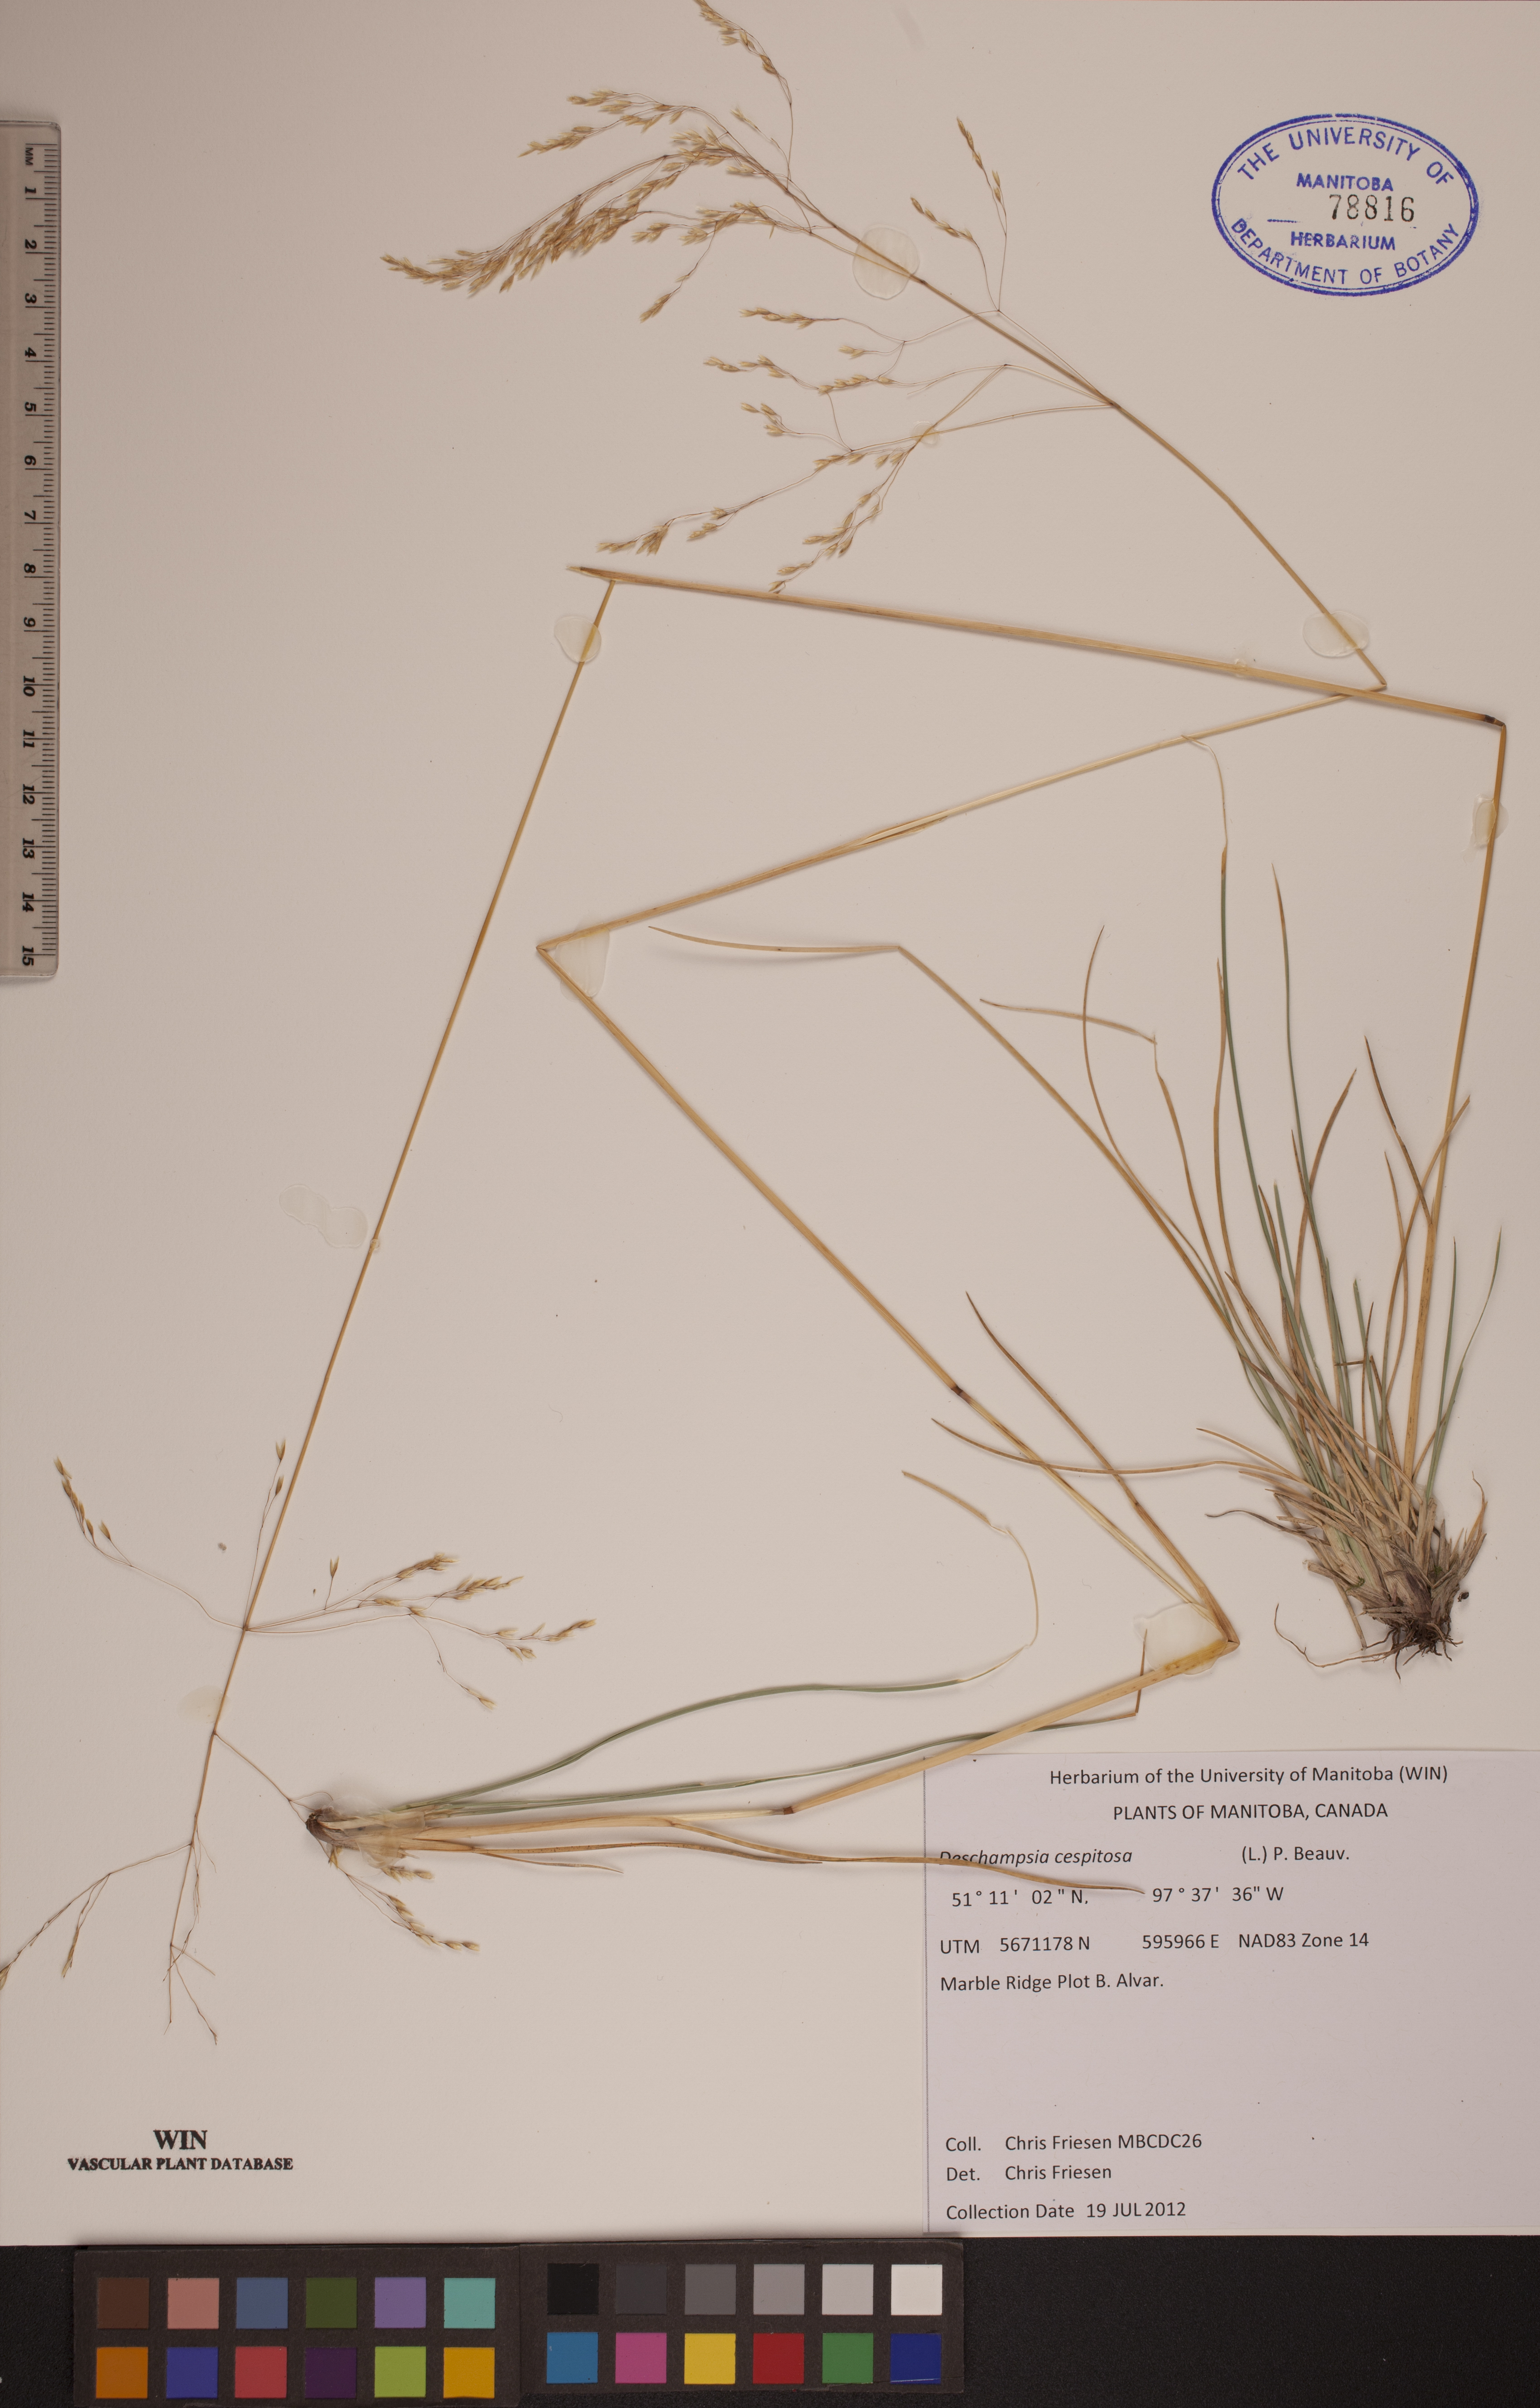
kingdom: Plantae
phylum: Tracheophyta
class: Liliopsida
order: Poales
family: Poaceae
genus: Deschampsia
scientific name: Deschampsia cespitosa
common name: Tufted hair-grass
